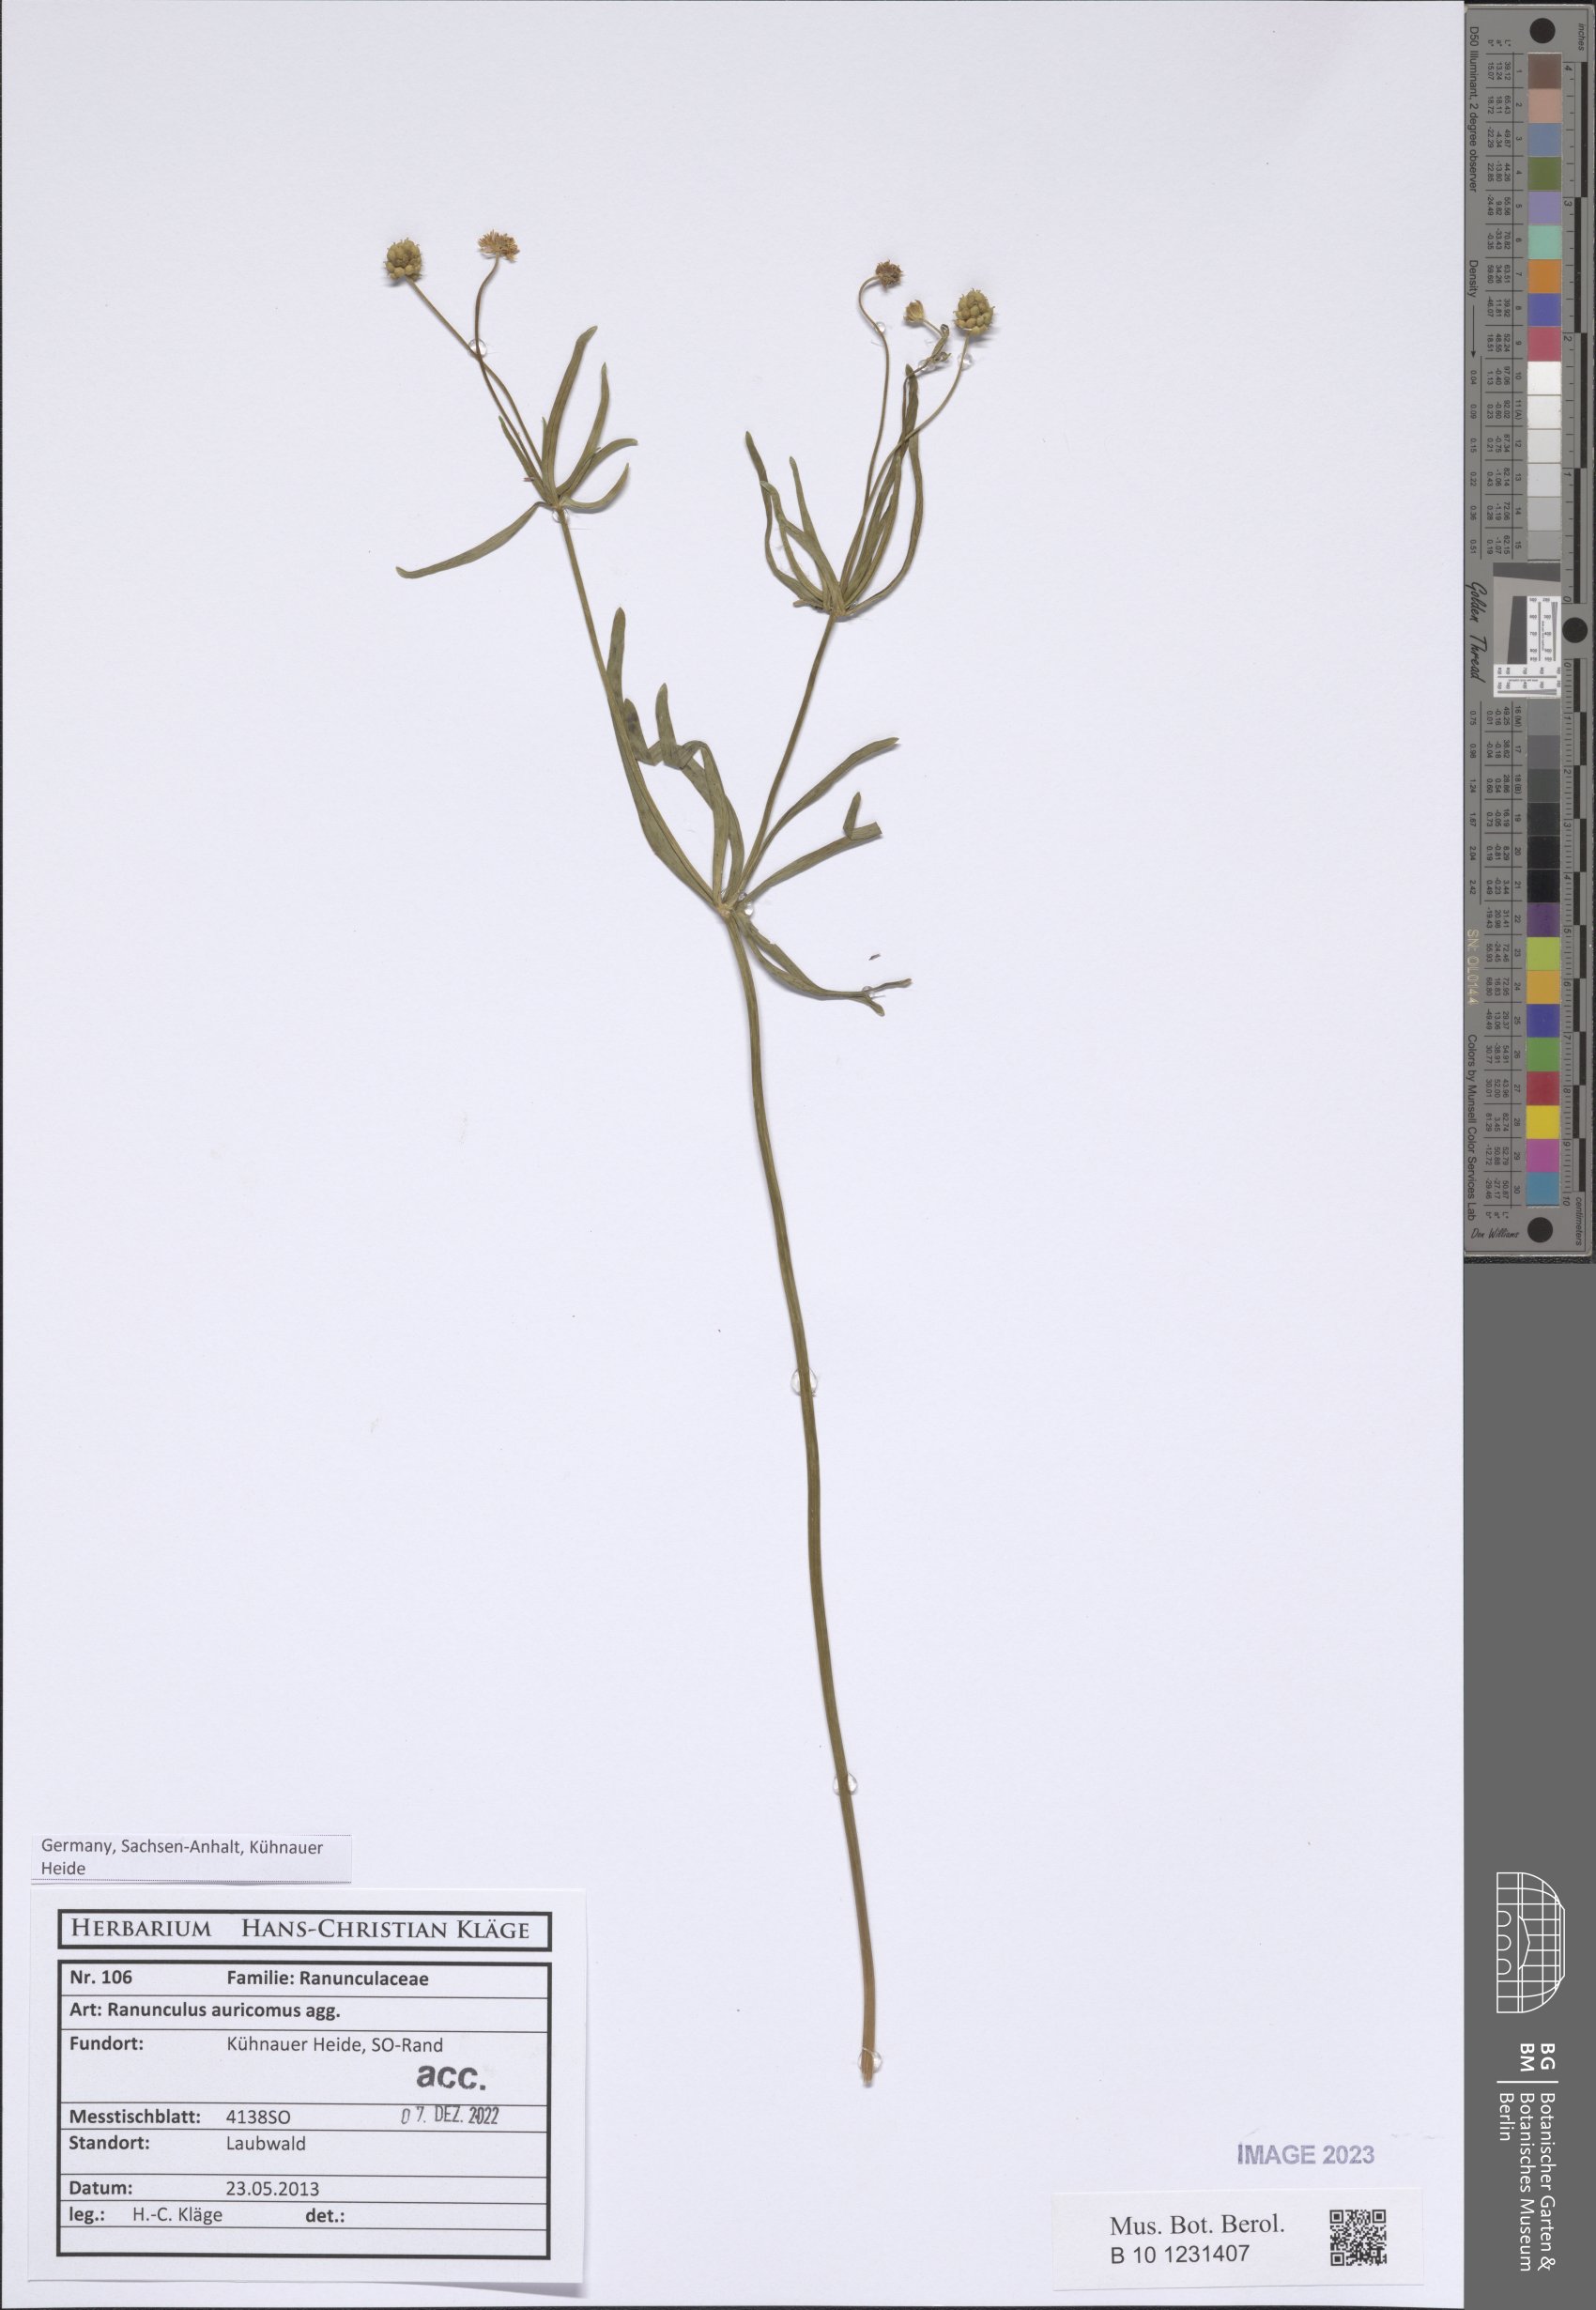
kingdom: Plantae
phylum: Tracheophyta
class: Magnoliopsida
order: Ranunculales
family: Ranunculaceae
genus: Ranunculus
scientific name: Ranunculus auricomus
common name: Goldilocks buttercup
